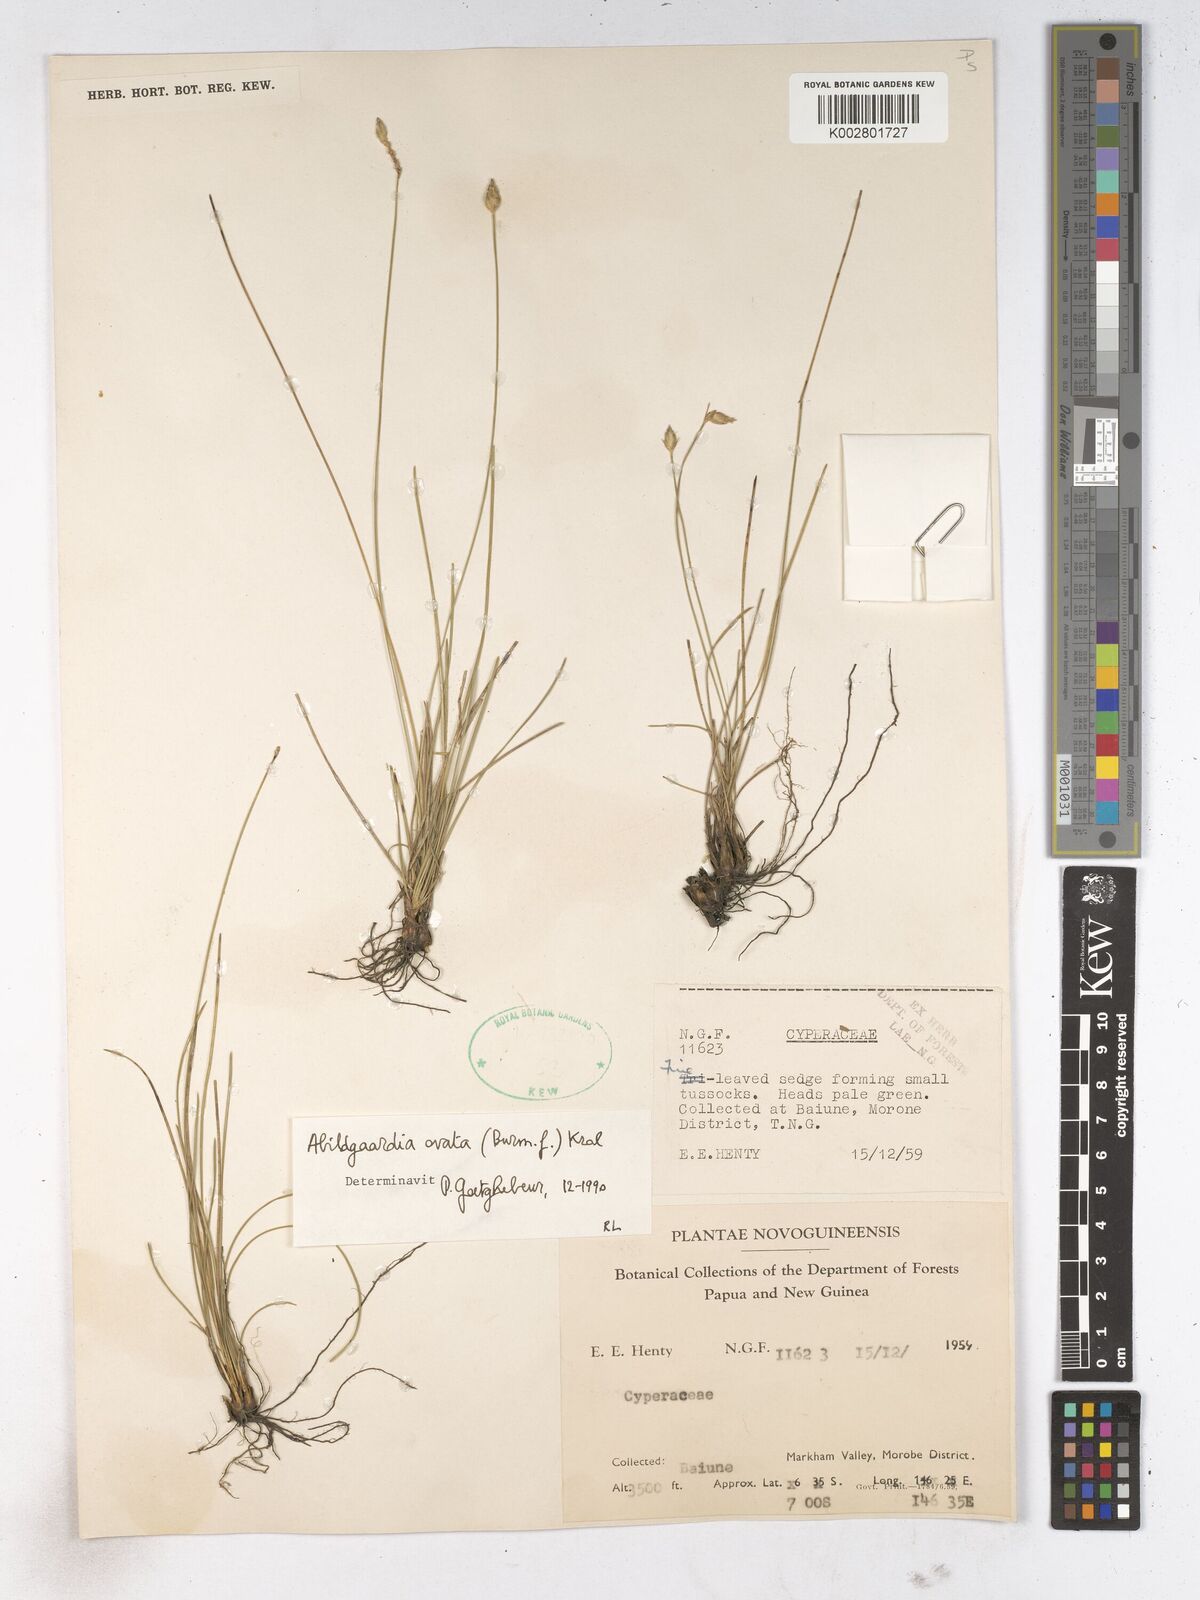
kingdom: Plantae
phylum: Tracheophyta
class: Liliopsida
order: Poales
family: Cyperaceae
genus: Abildgaardia
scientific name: Abildgaardia ovata
